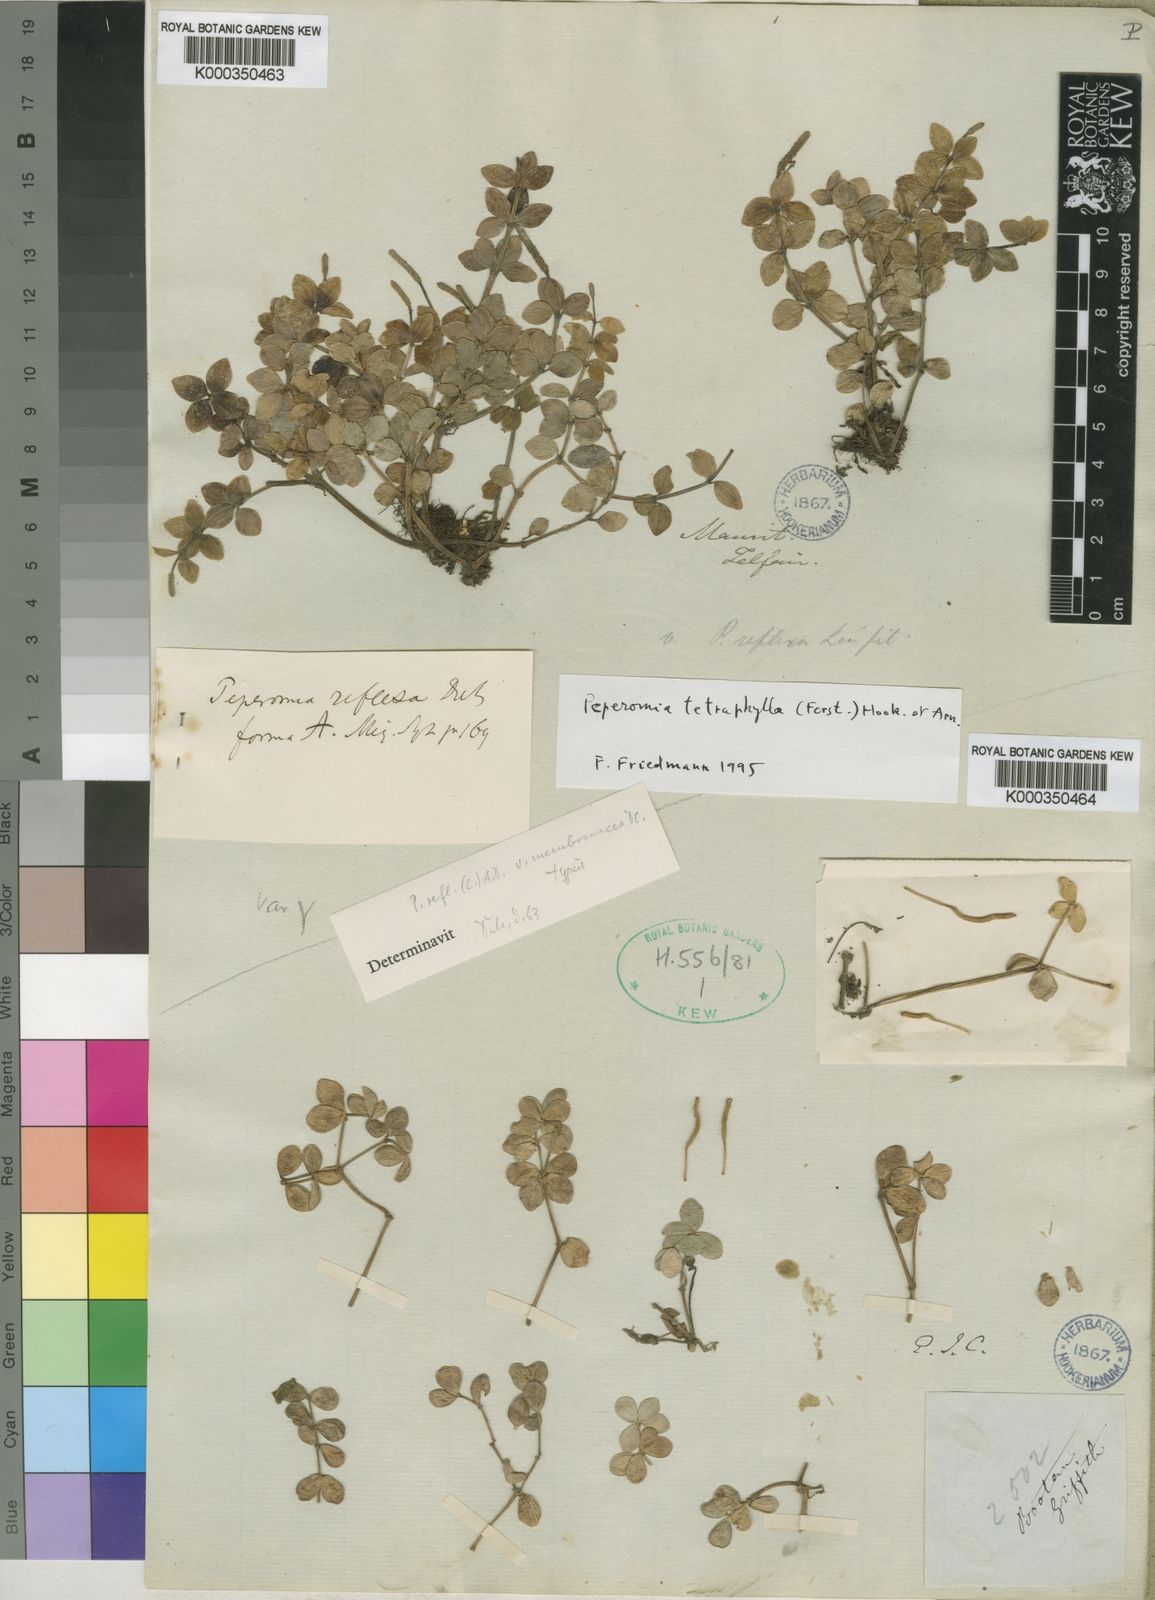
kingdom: Plantae
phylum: Tracheophyta
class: Magnoliopsida
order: Piperales
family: Piperaceae
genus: Peperomia
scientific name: Peperomia tetraphylla
